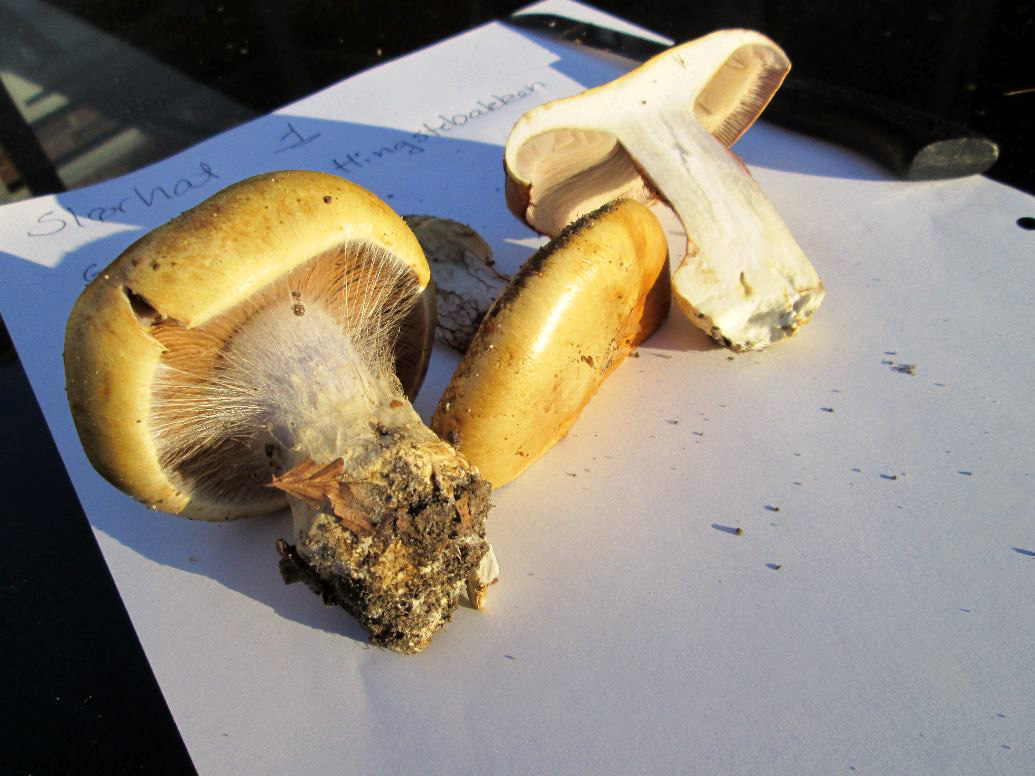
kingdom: Fungi
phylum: Basidiomycota
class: Agaricomycetes
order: Agaricales
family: Cortinariaceae
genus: Cortinarius
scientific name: Cortinarius bergeronii
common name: prægtig slørhat
